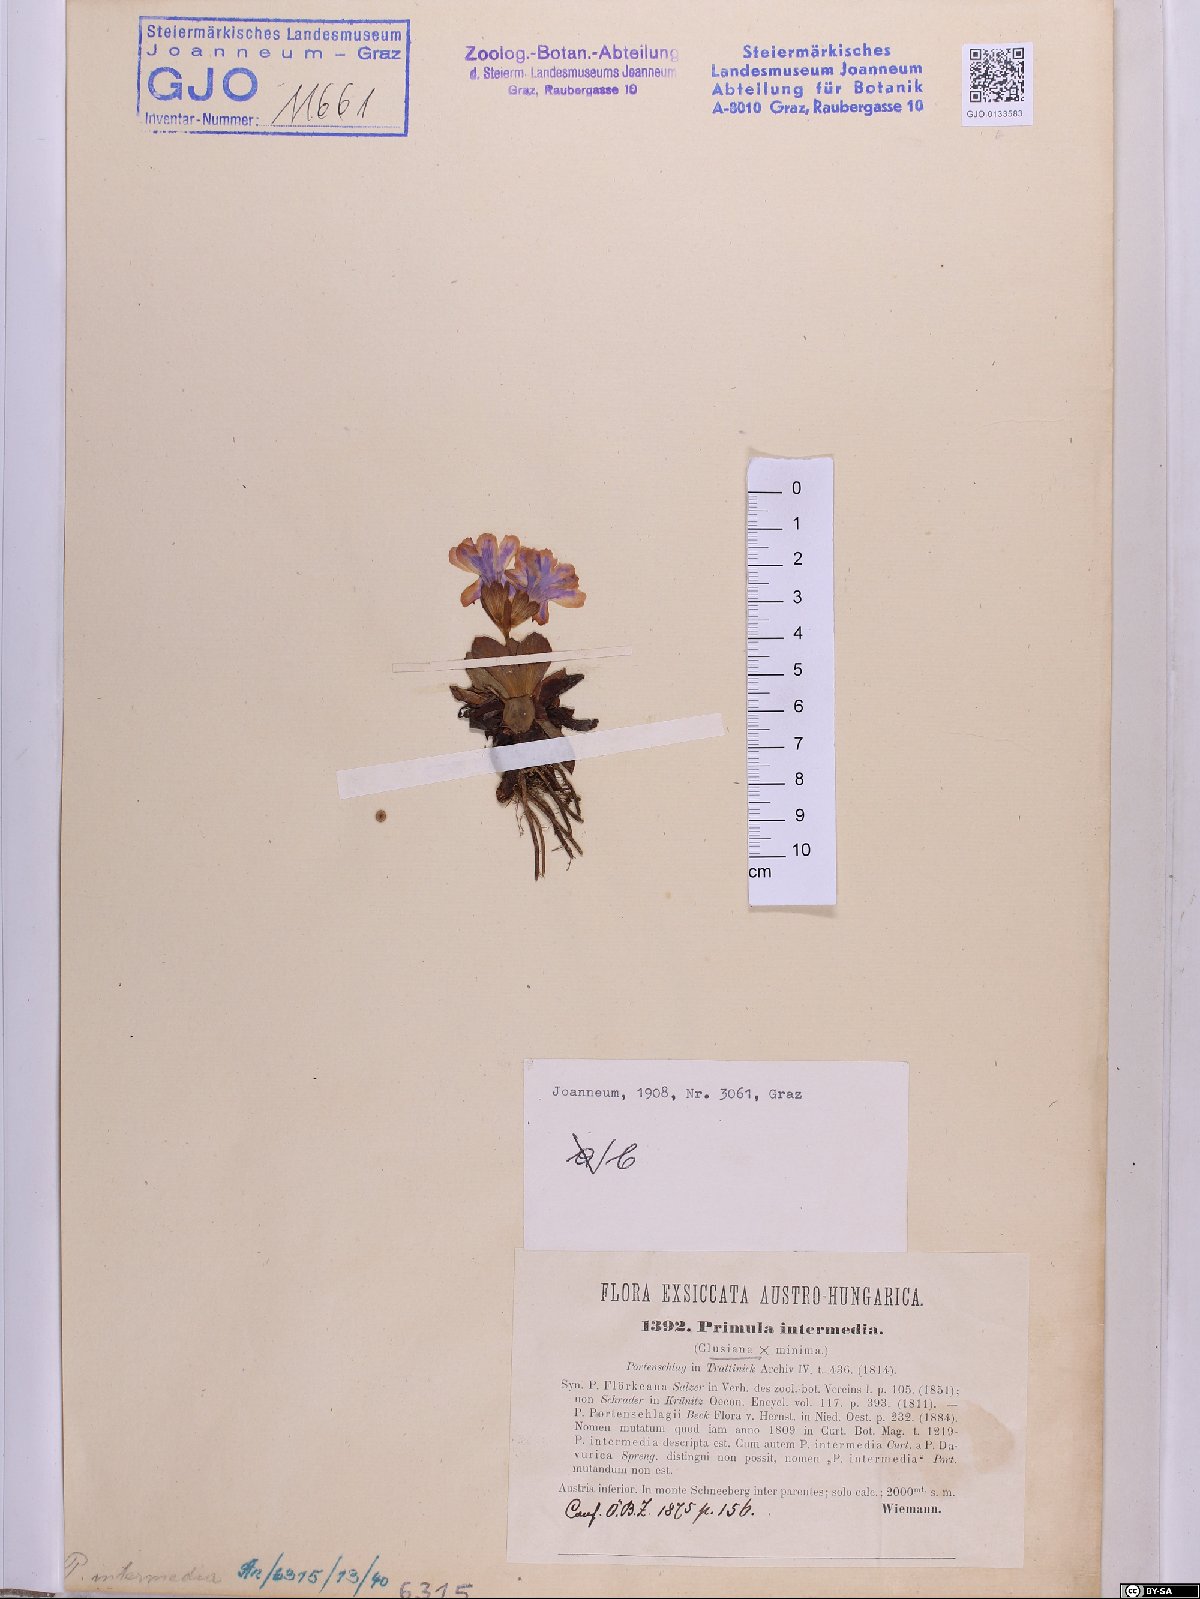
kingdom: Plantae
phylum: Tracheophyta
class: Magnoliopsida
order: Ericales
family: Primulaceae
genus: Primula
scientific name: Primula wettsteinii
